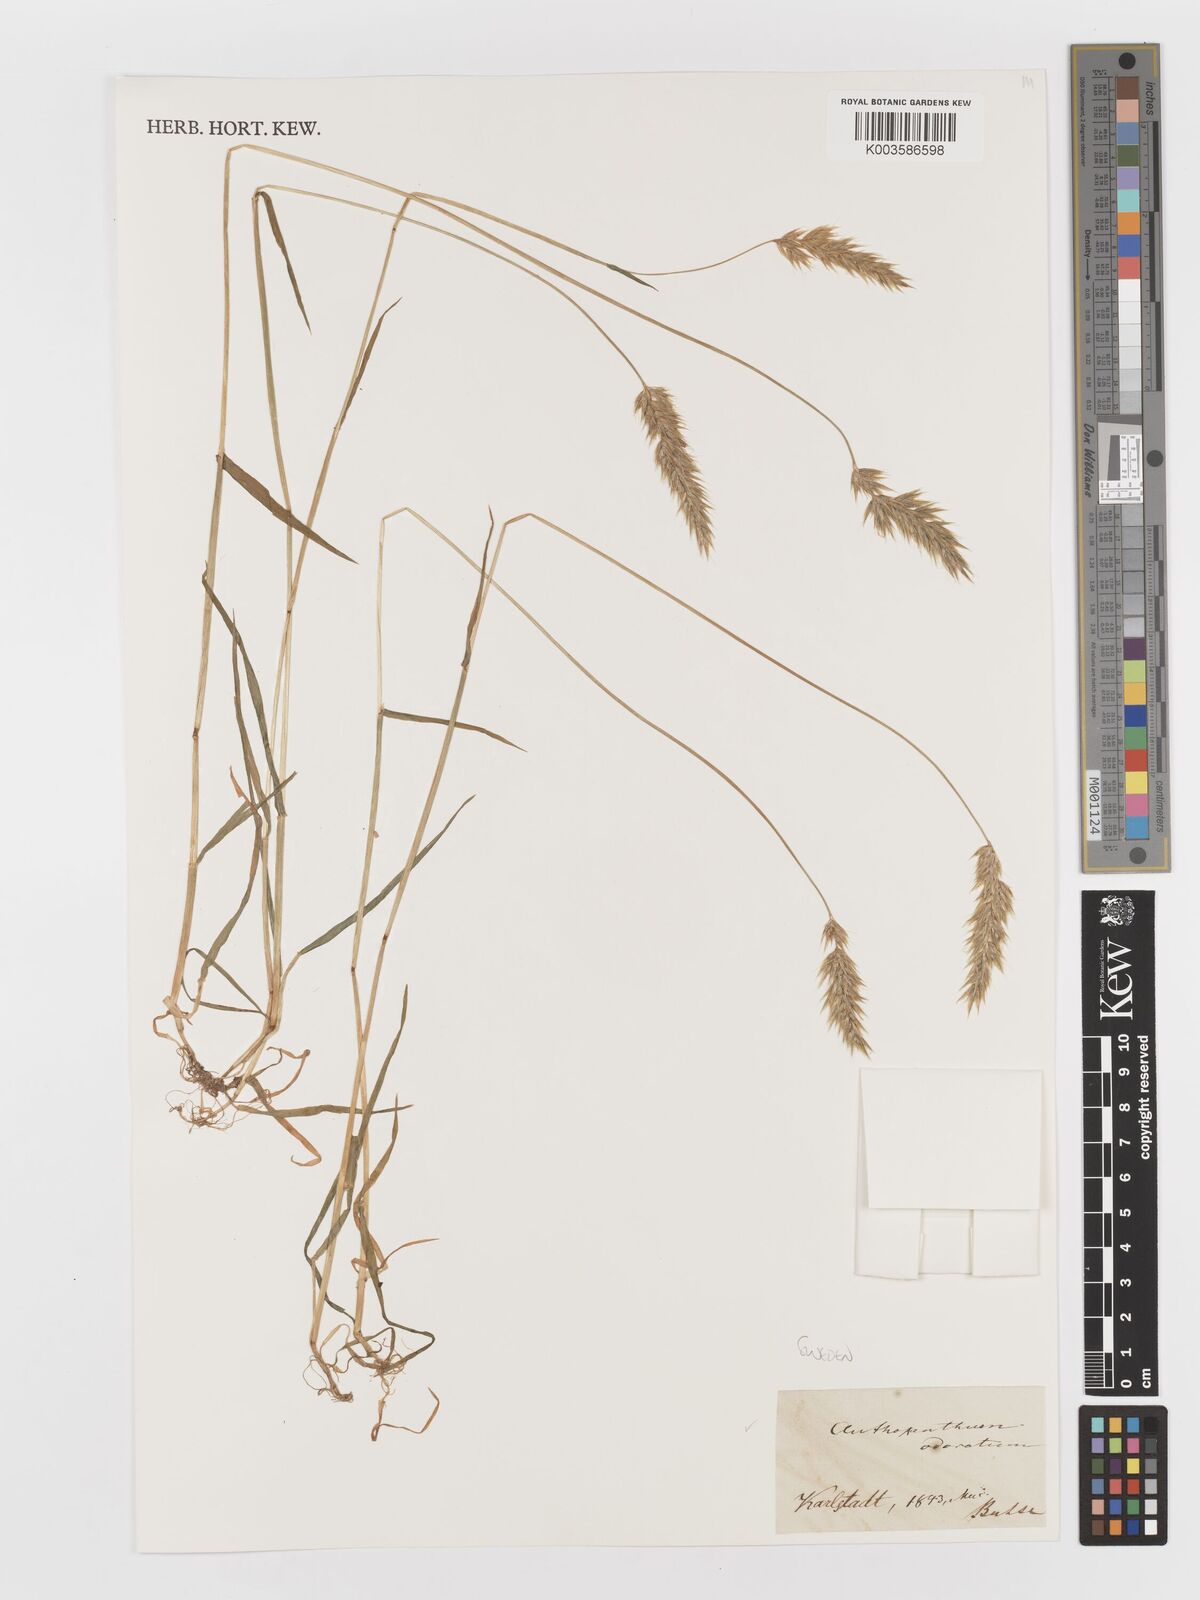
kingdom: Plantae
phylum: Tracheophyta
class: Liliopsida
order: Poales
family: Poaceae
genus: Anthoxanthum
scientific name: Anthoxanthum odoratum
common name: Sweet vernalgrass
